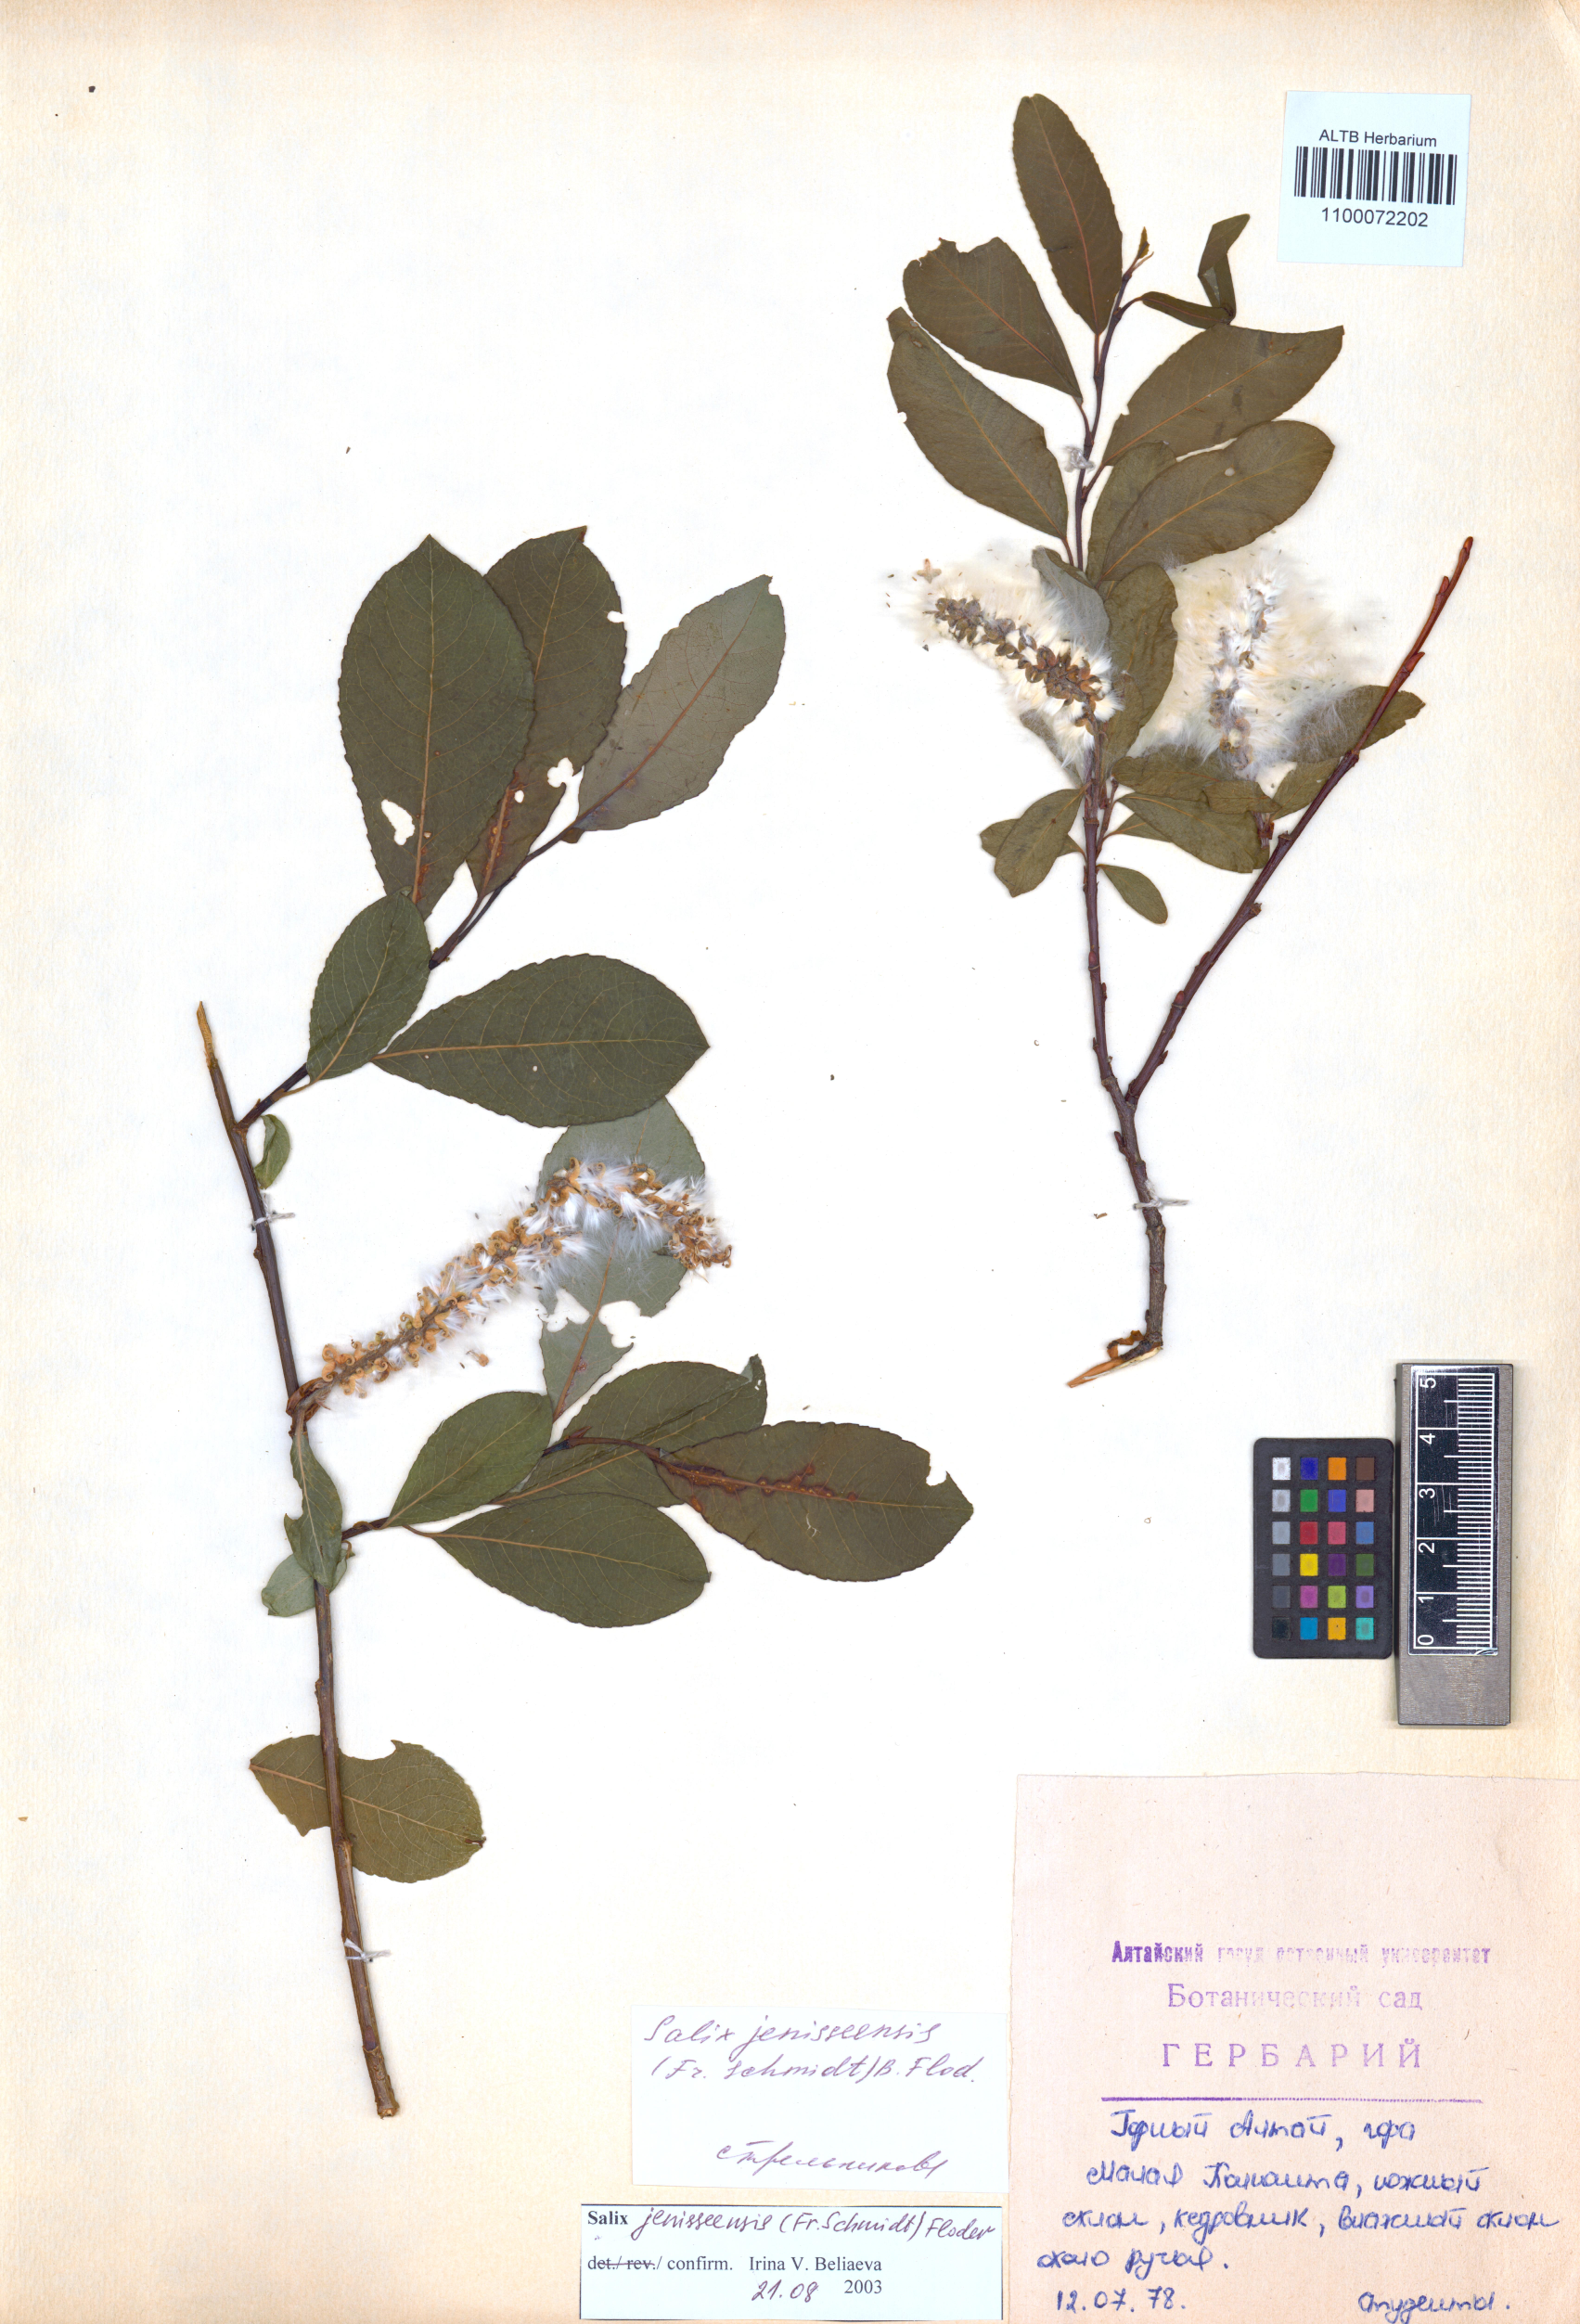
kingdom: Plantae
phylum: Tracheophyta
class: Magnoliopsida
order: Malpighiales
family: Salicaceae
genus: Salix
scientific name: Salix jenisseensis
